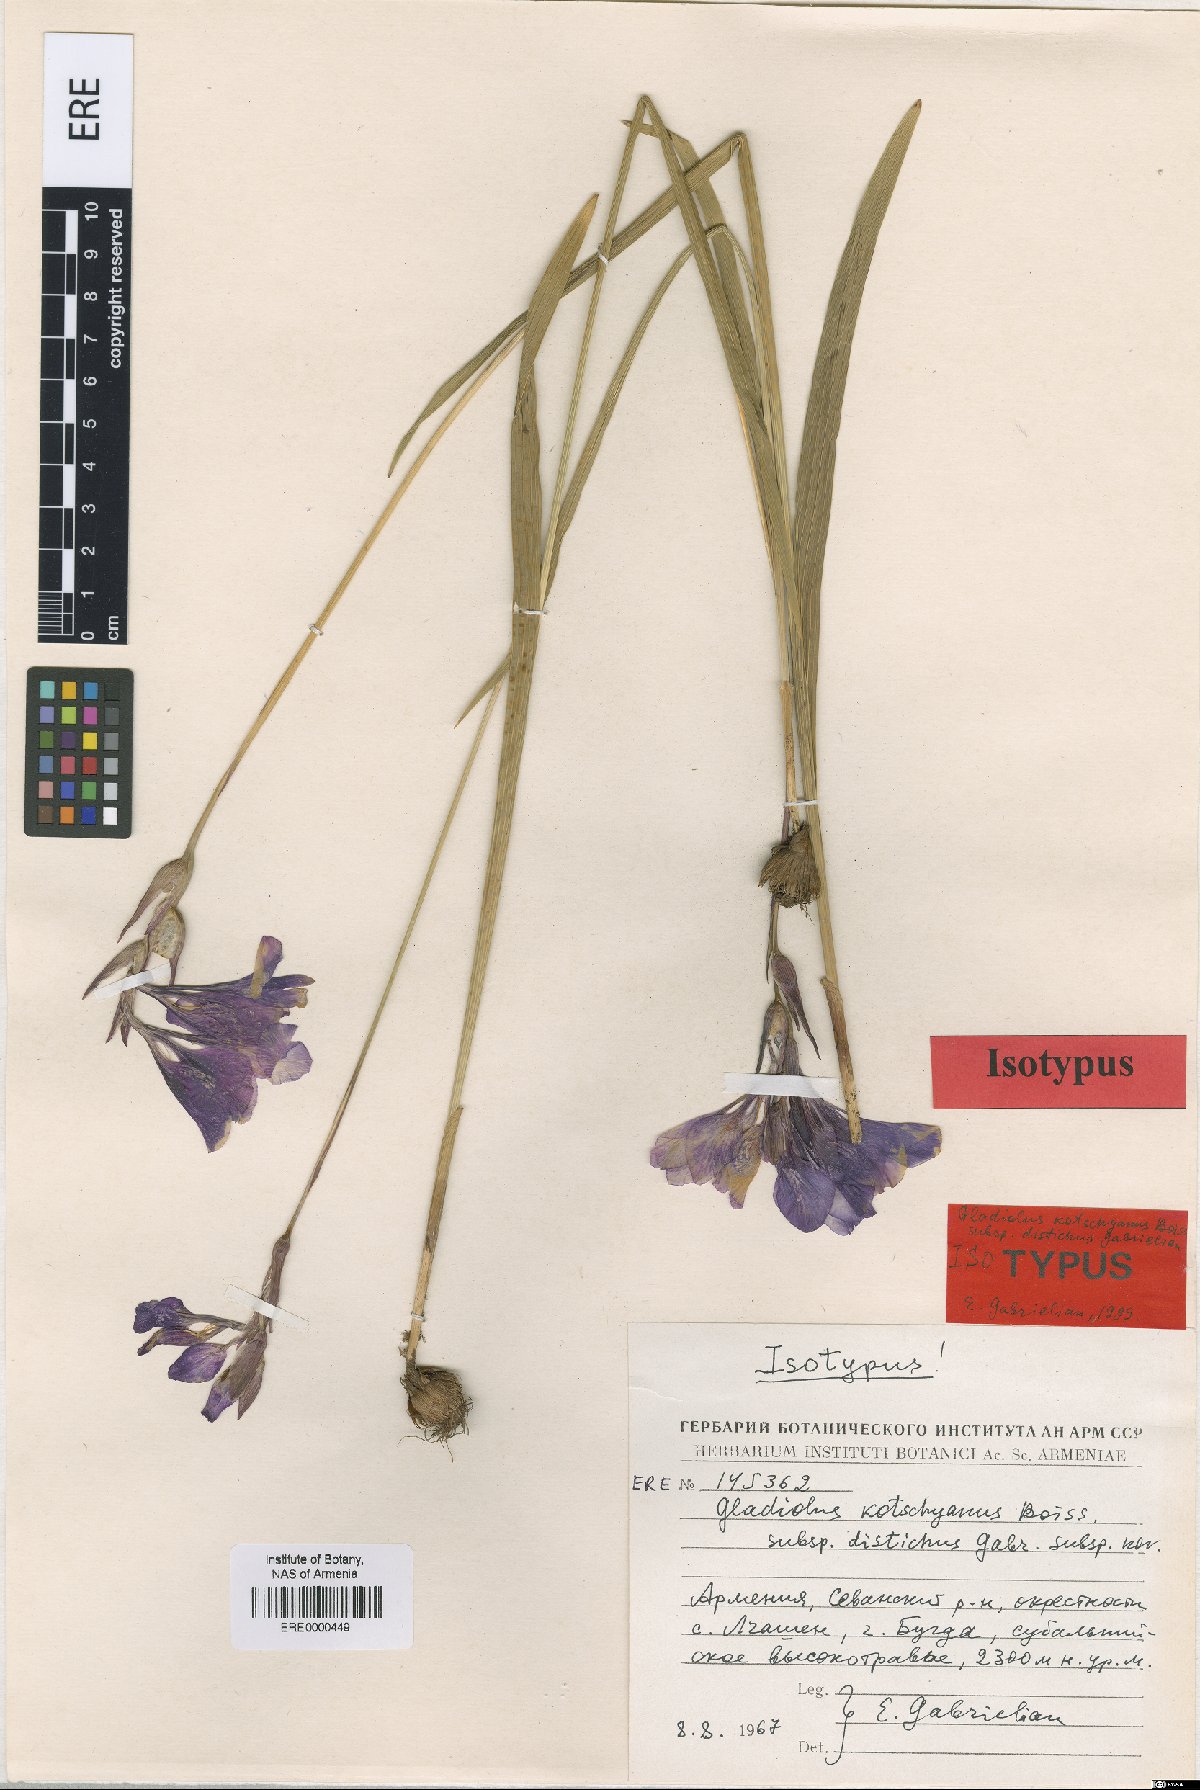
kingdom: Plantae
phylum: Tracheophyta
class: Liliopsida
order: Asparagales
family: Iridaceae
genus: Gladiolus
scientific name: Gladiolus kotschyanus
